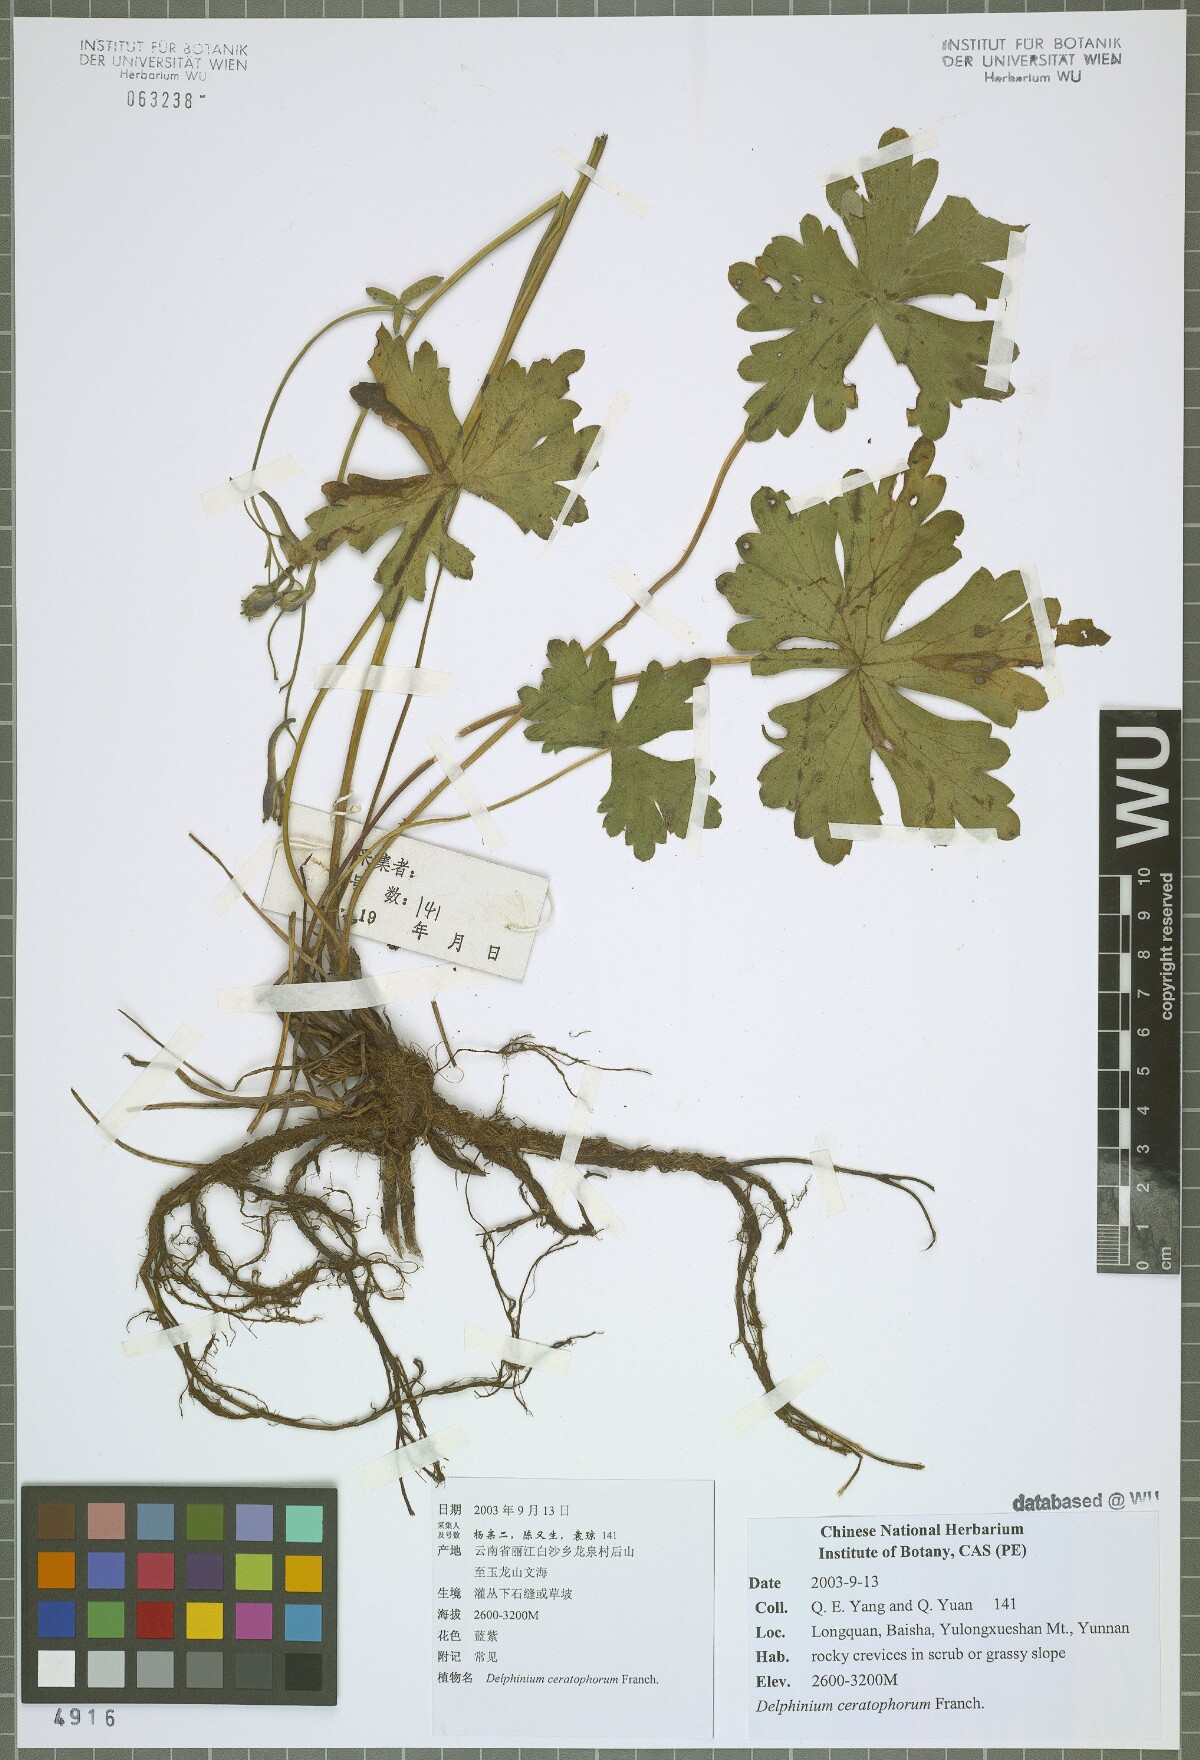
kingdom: Plantae
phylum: Tracheophyta
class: Magnoliopsida
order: Ranunculales
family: Ranunculaceae
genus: Delphinium
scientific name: Delphinium ceratophorum
